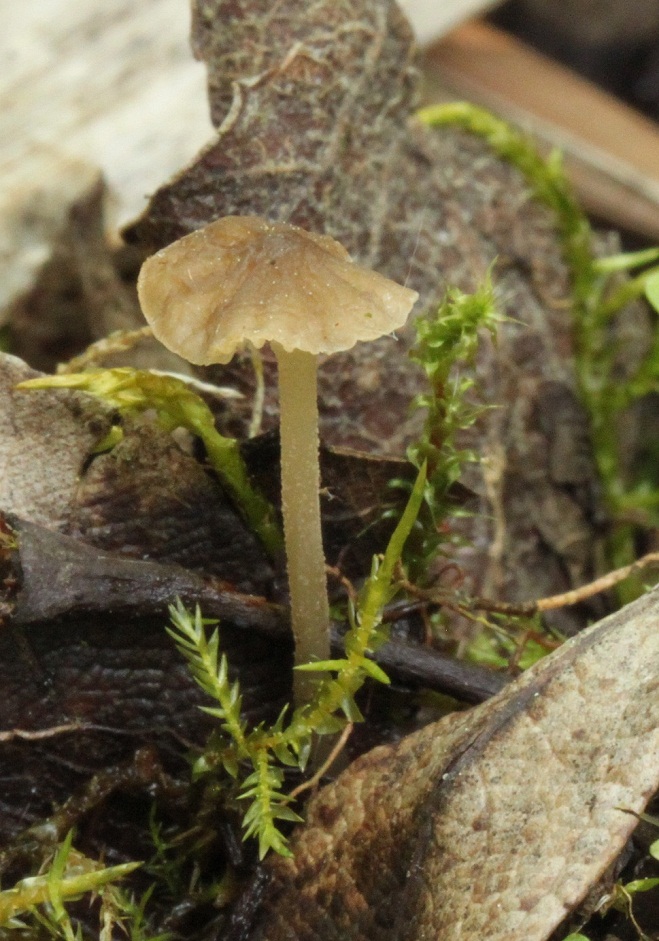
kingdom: Fungi
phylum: Basidiomycota
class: Agaricomycetes
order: Agaricales
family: Porotheleaceae
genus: Phloeomana
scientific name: Phloeomana speirea
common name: kvist-huesvamp
